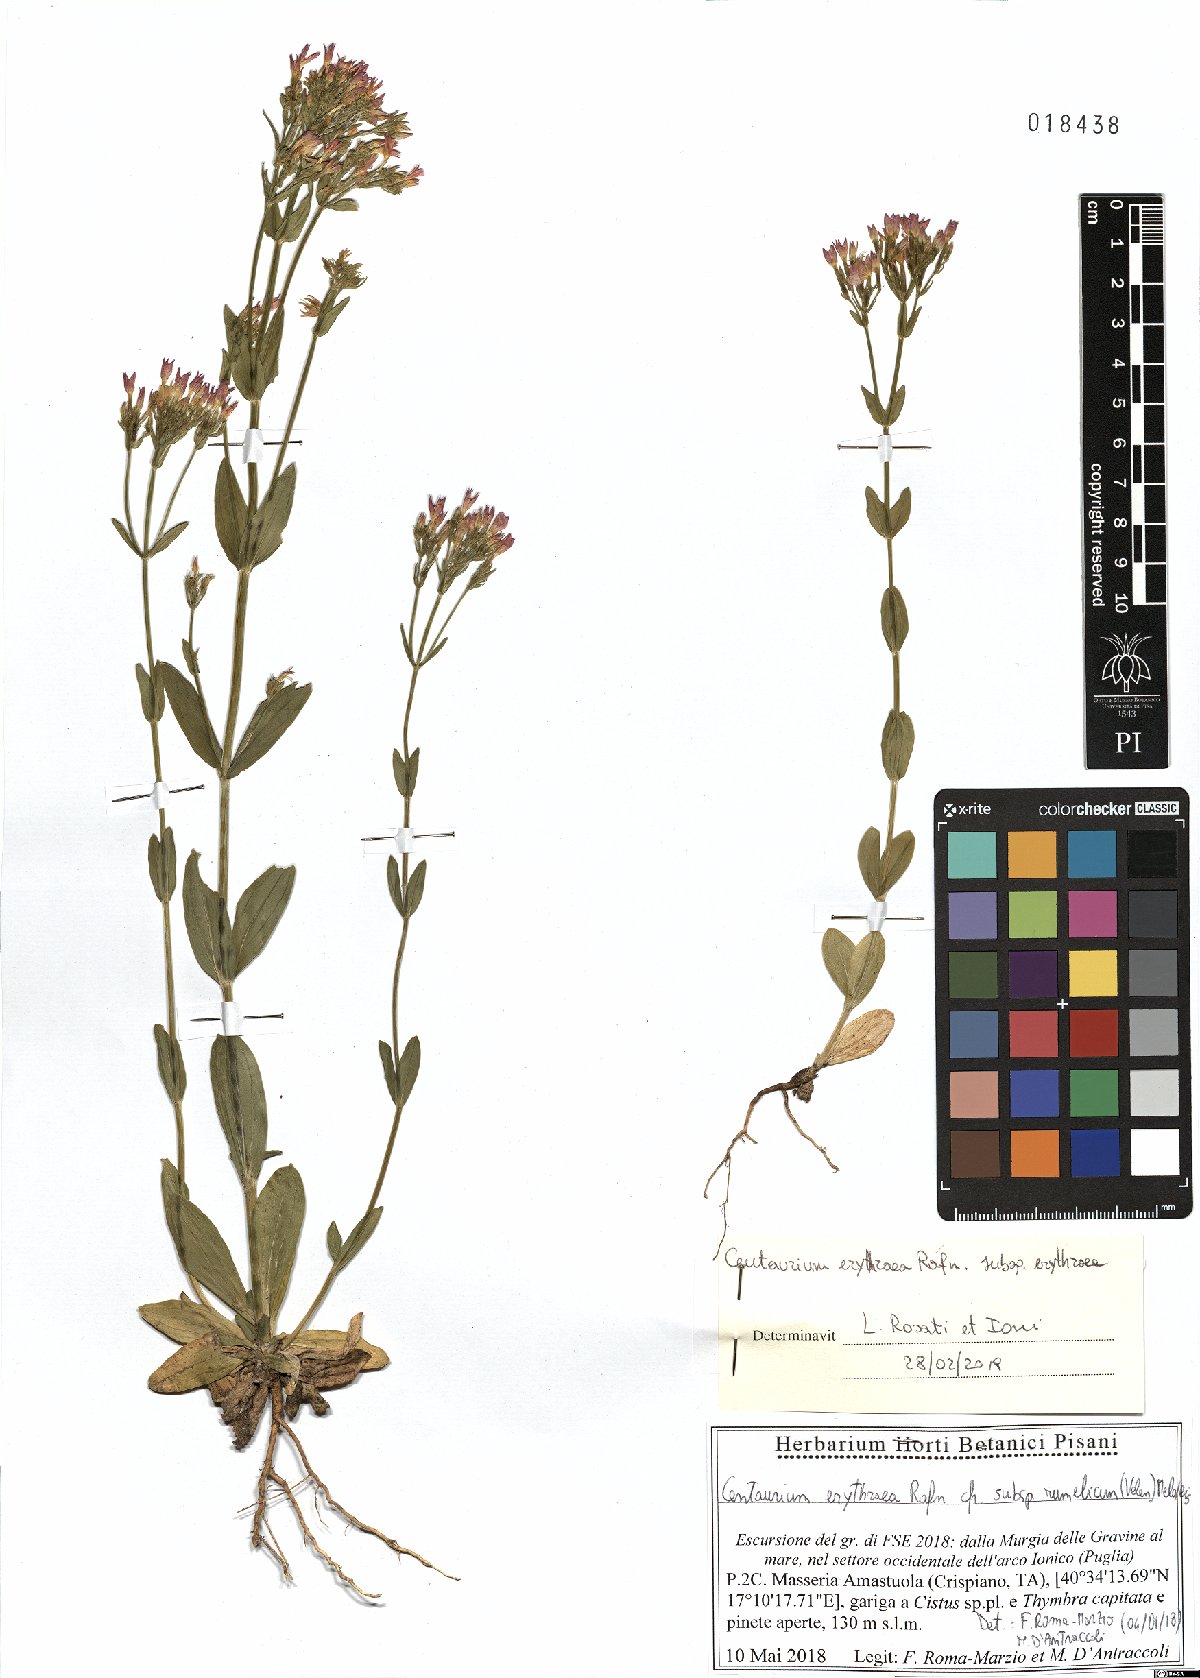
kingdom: Plantae
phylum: Tracheophyta
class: Magnoliopsida
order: Gentianales
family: Gentianaceae
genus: Centaurium
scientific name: Centaurium erythraea
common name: Common centaury
